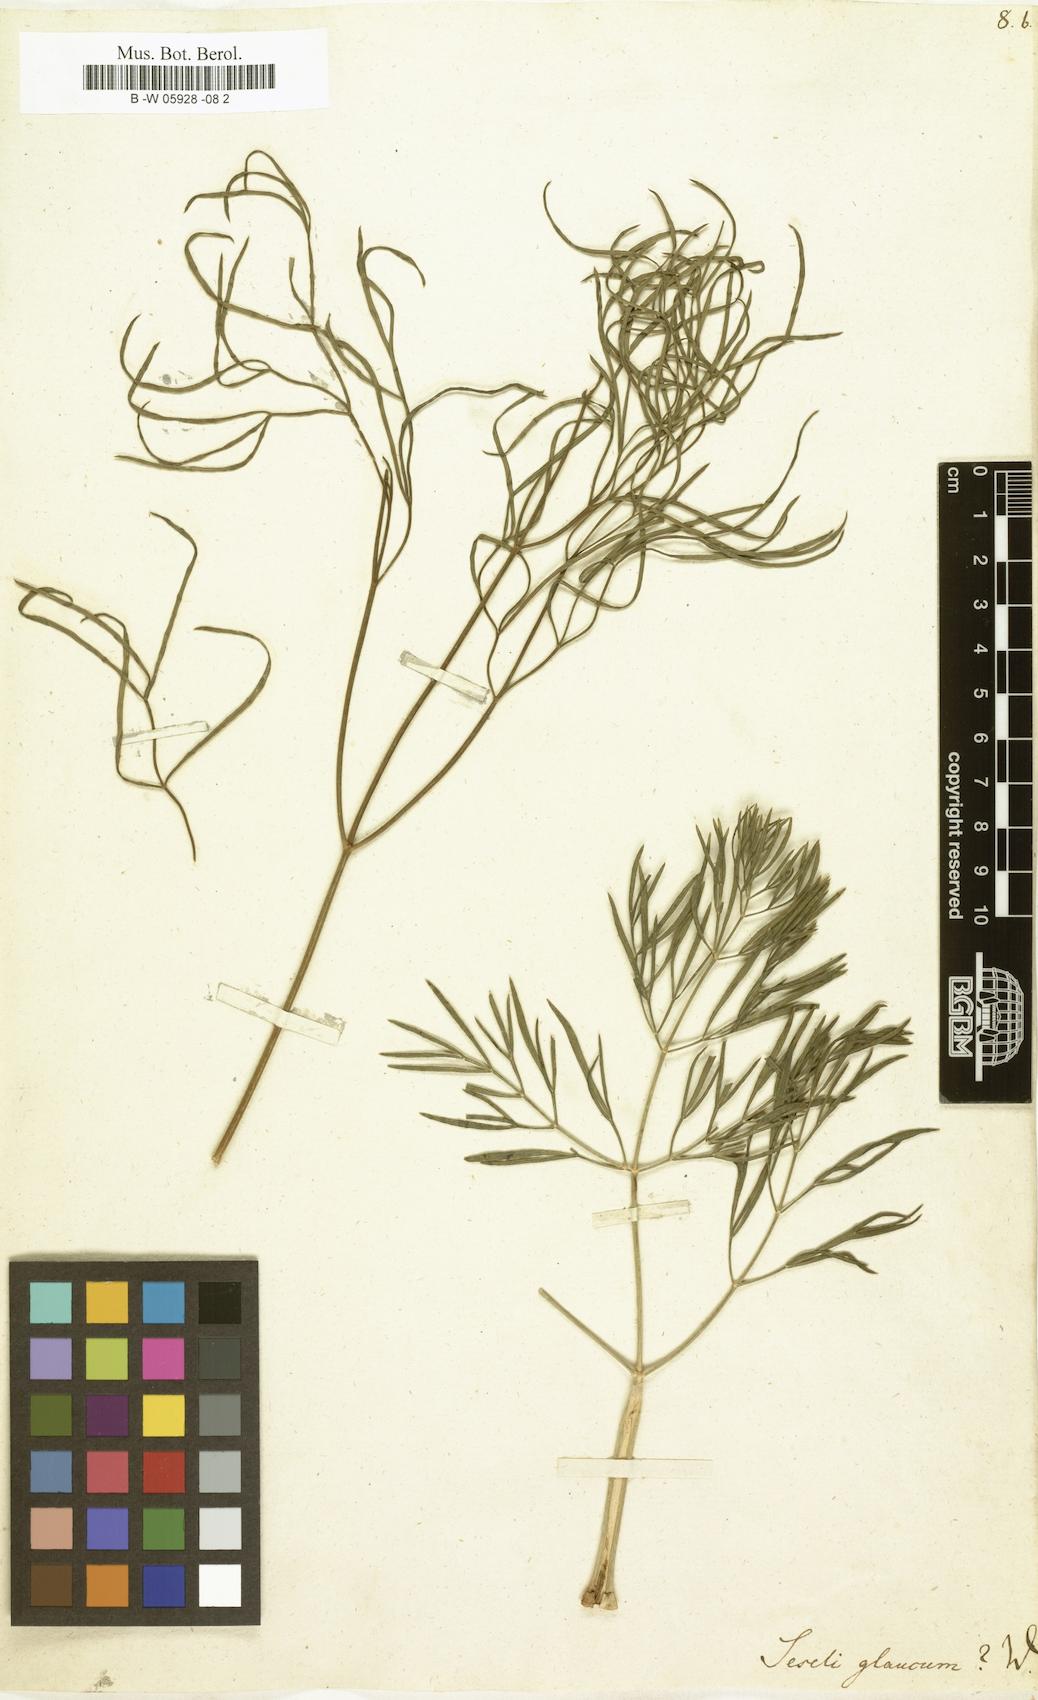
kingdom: Plantae
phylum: Tracheophyta
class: Magnoliopsida
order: Apiales
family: Apiaceae
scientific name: Apiaceae
